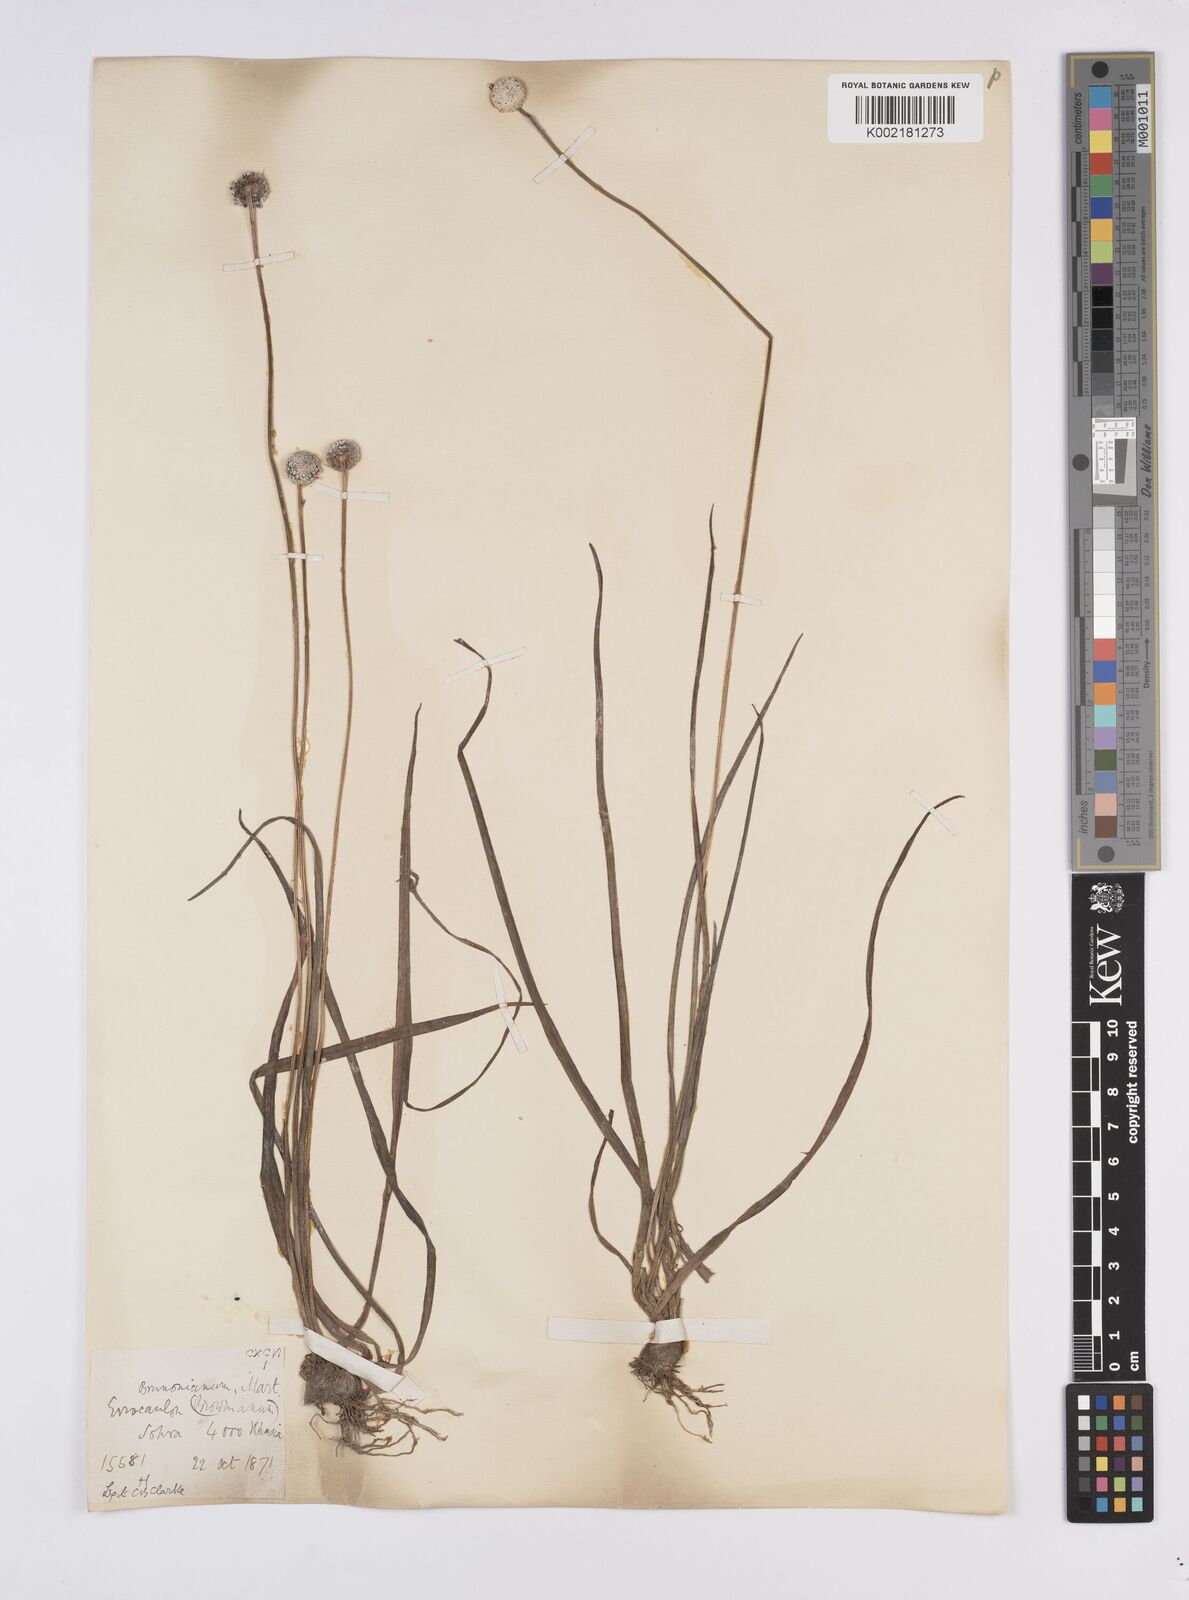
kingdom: Plantae
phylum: Tracheophyta
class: Liliopsida
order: Poales
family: Eriocaulaceae
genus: Eriocaulon
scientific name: Eriocaulon brownianum
